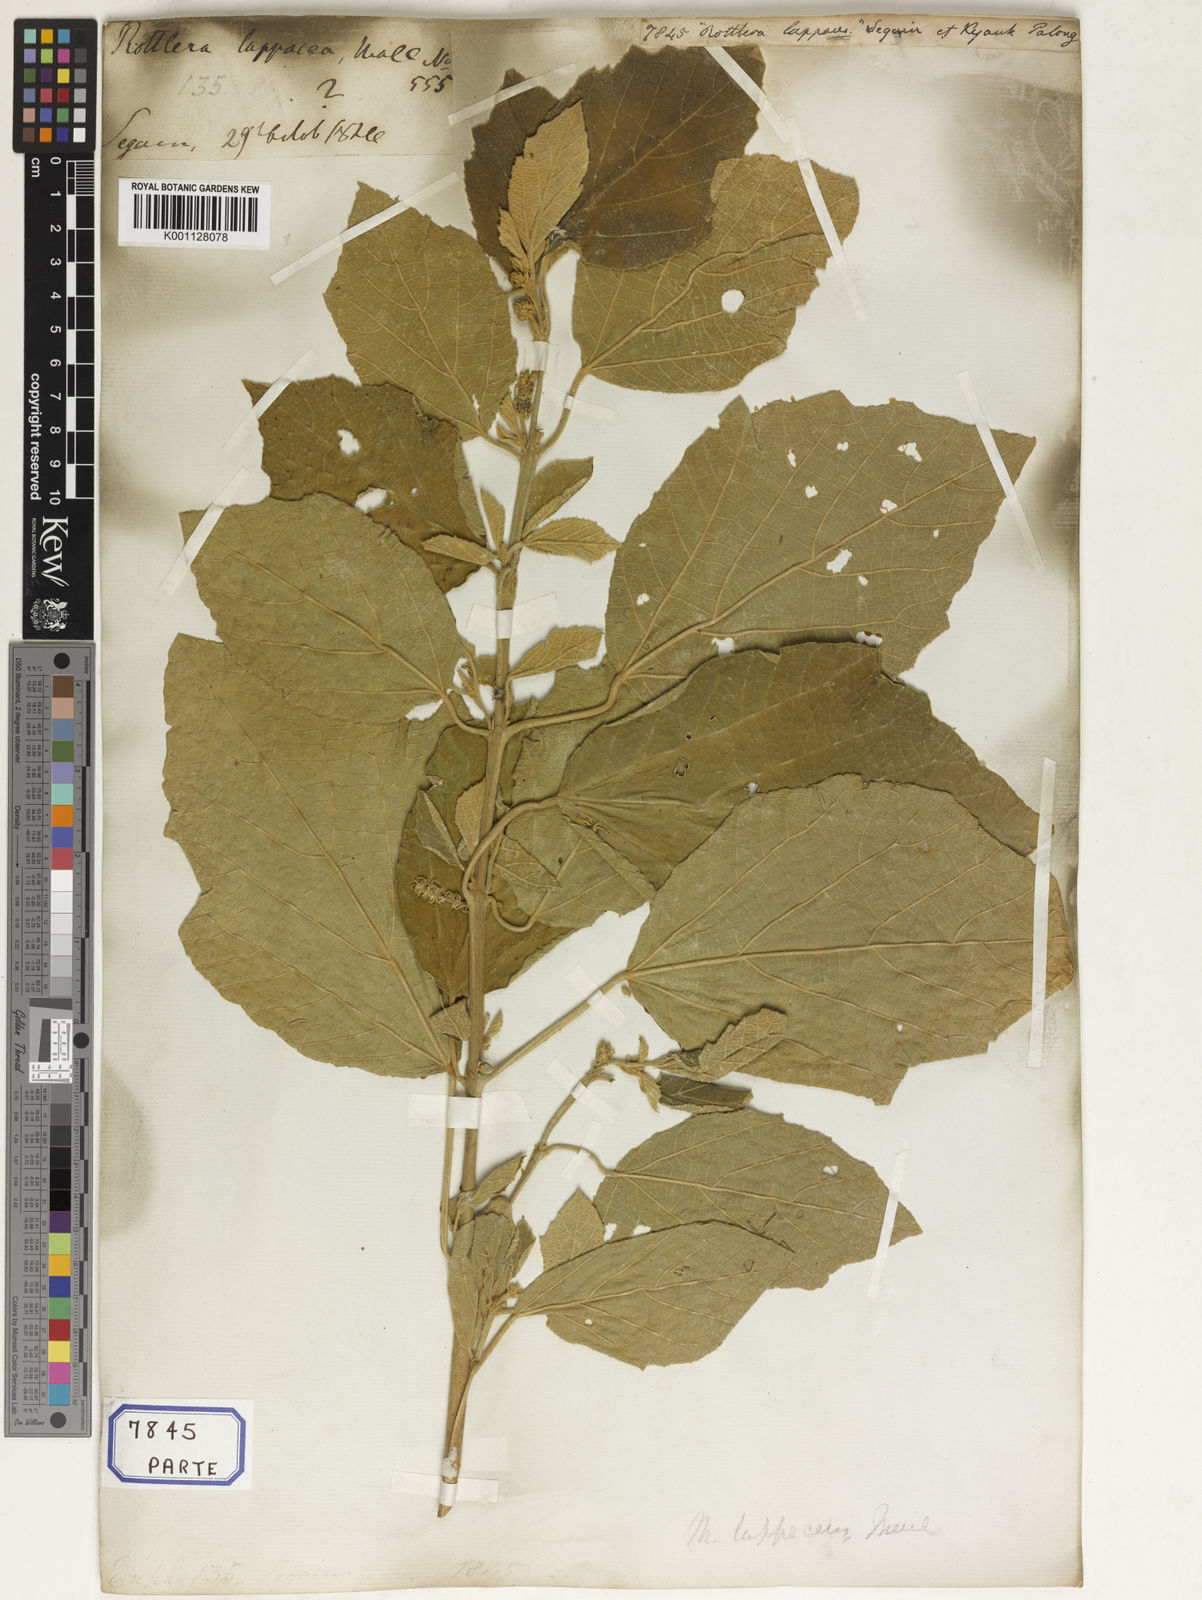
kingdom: Plantae
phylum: Tracheophyta
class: Magnoliopsida
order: Malpighiales
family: Euphorbiaceae
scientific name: Euphorbiaceae
